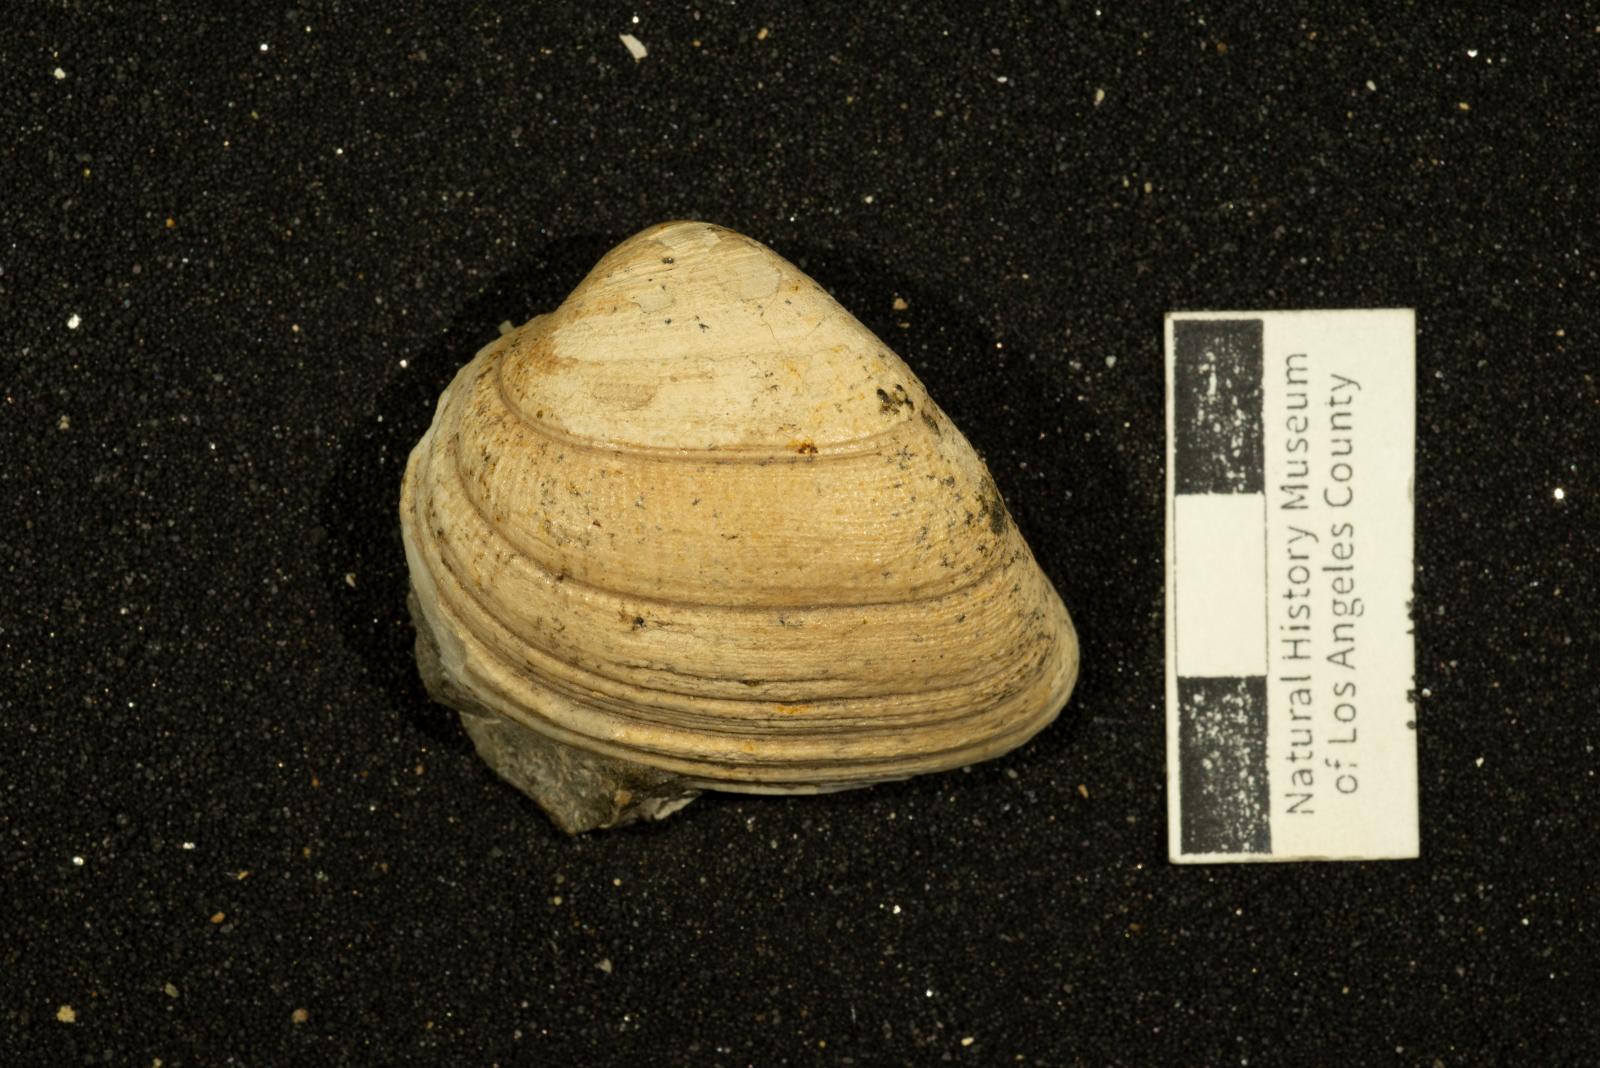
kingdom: Animalia
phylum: Mollusca
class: Bivalvia
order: Arcida
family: Cucullaeidae
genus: Idonearca
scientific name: Idonearca Cucullaea melhaseana
